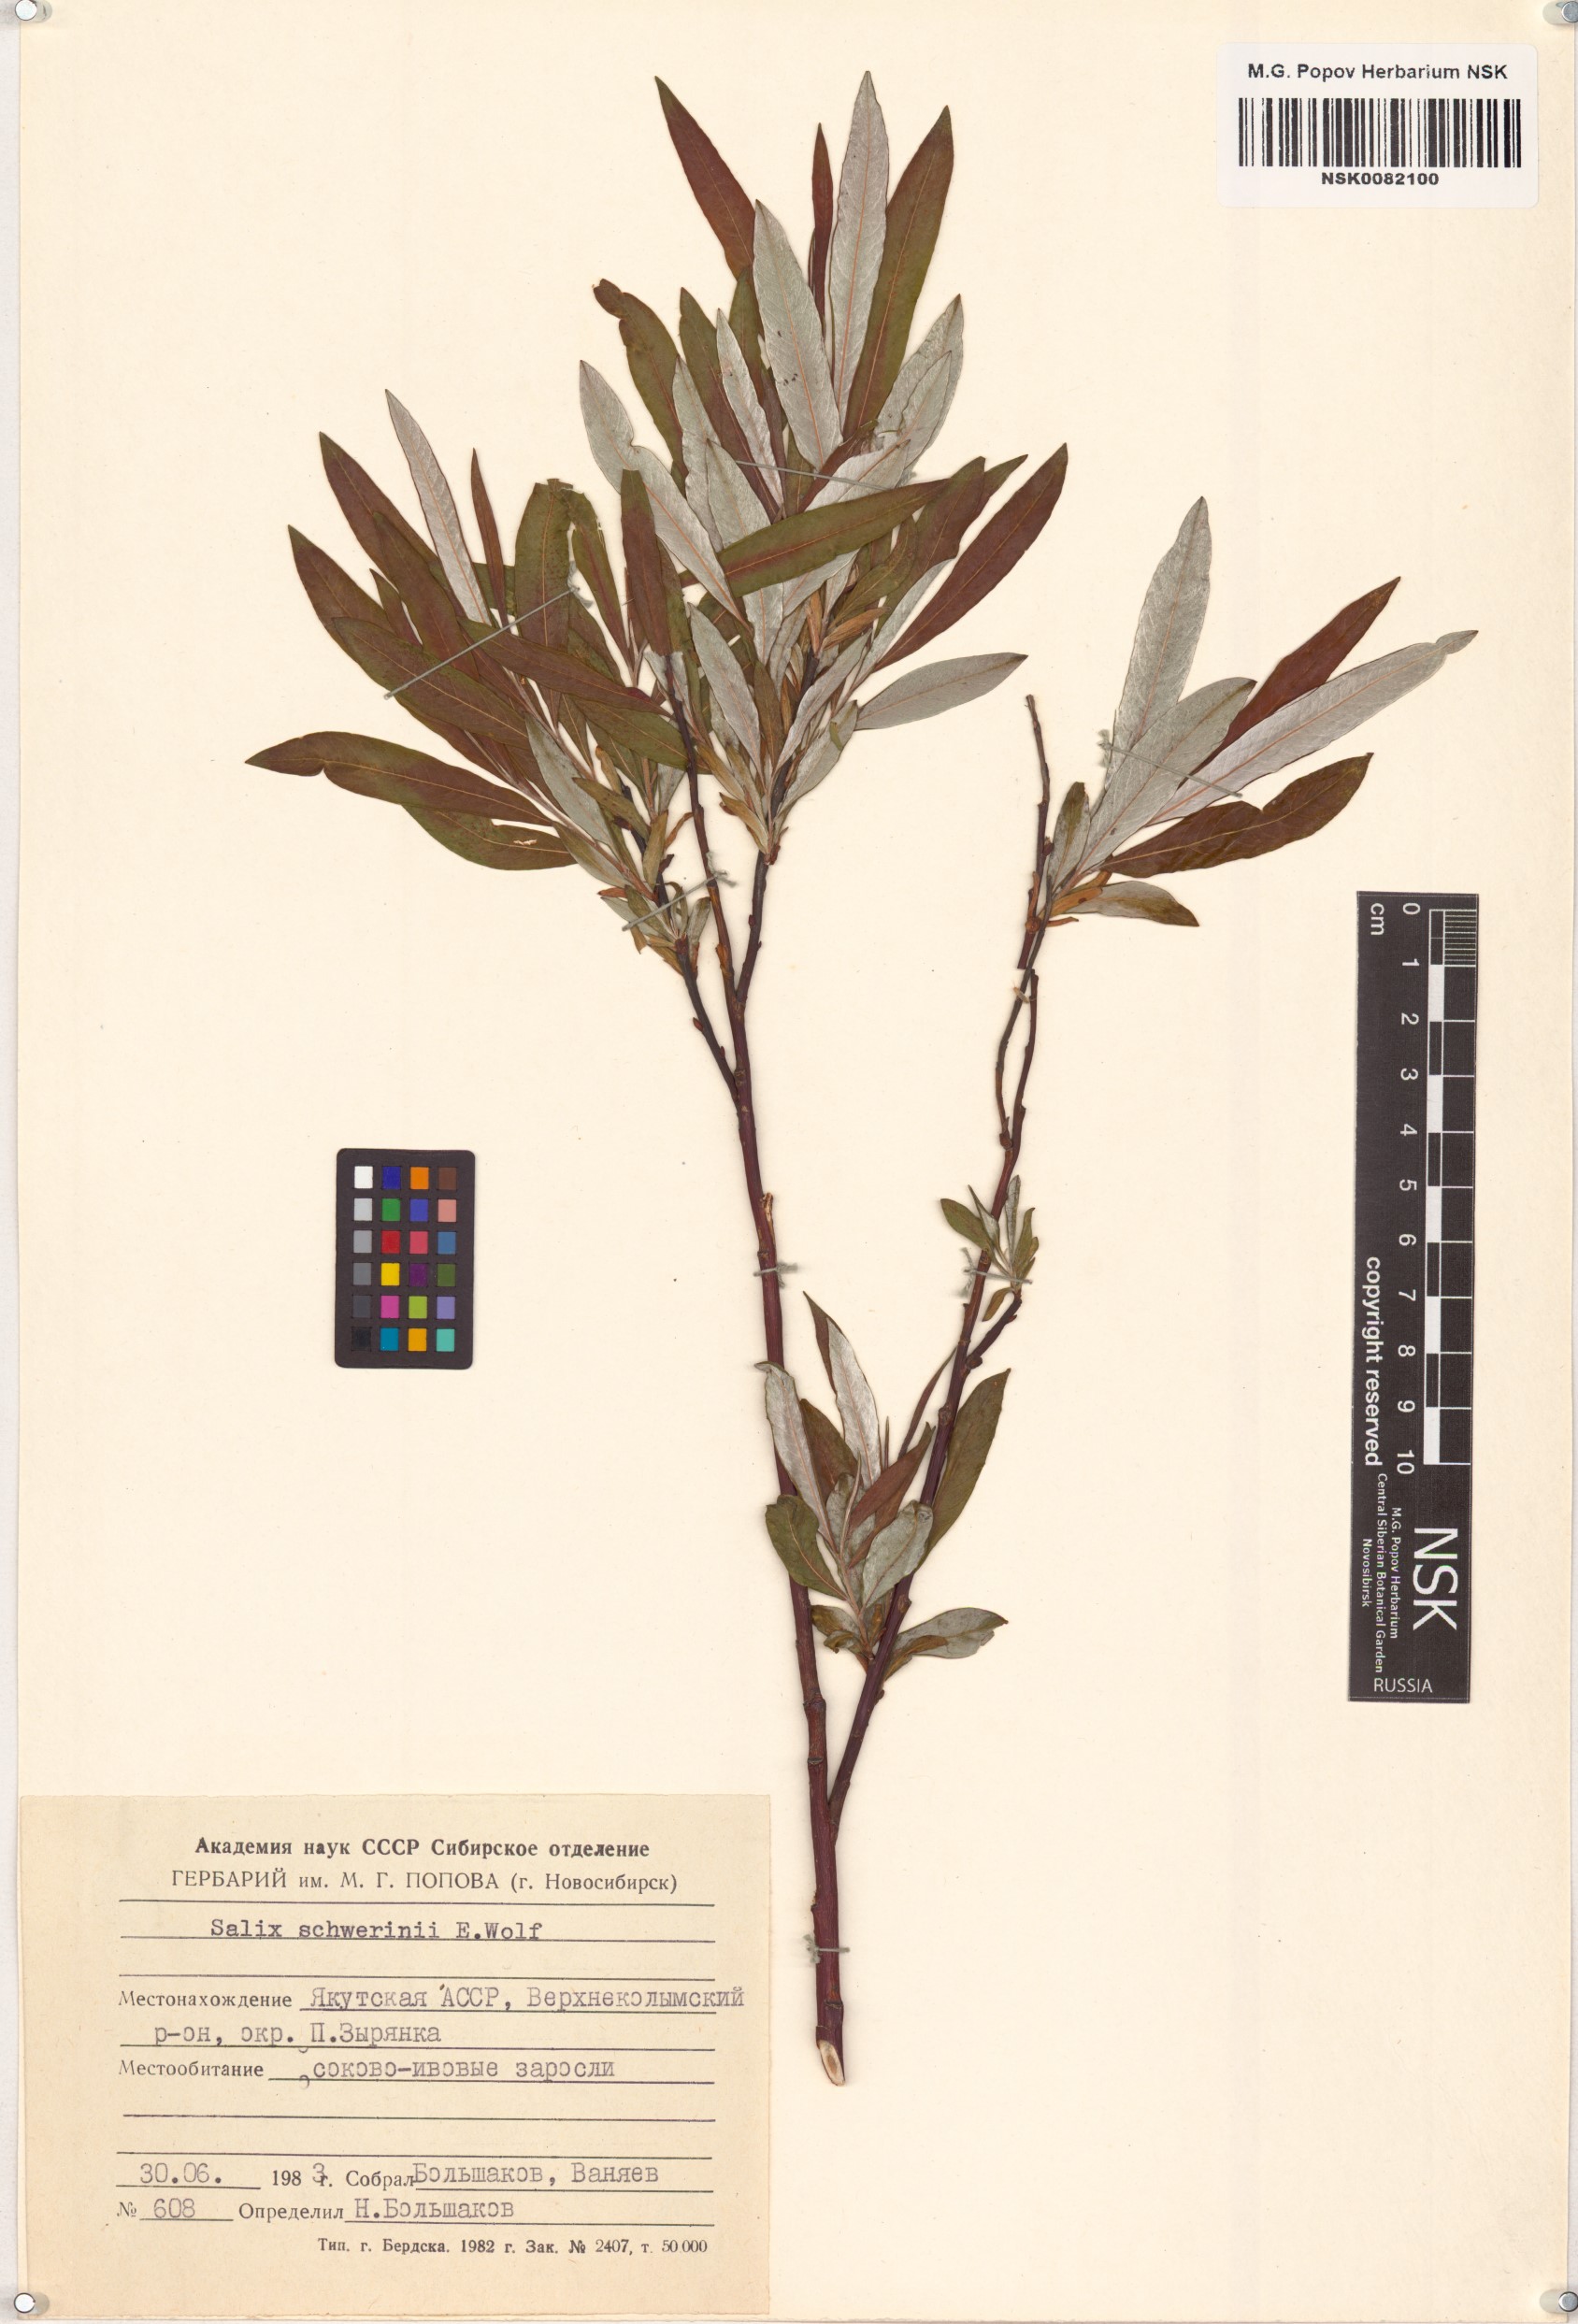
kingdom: Plantae
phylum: Tracheophyta
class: Magnoliopsida
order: Malpighiales
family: Salicaceae
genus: Salix
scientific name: Salix schwerinii
